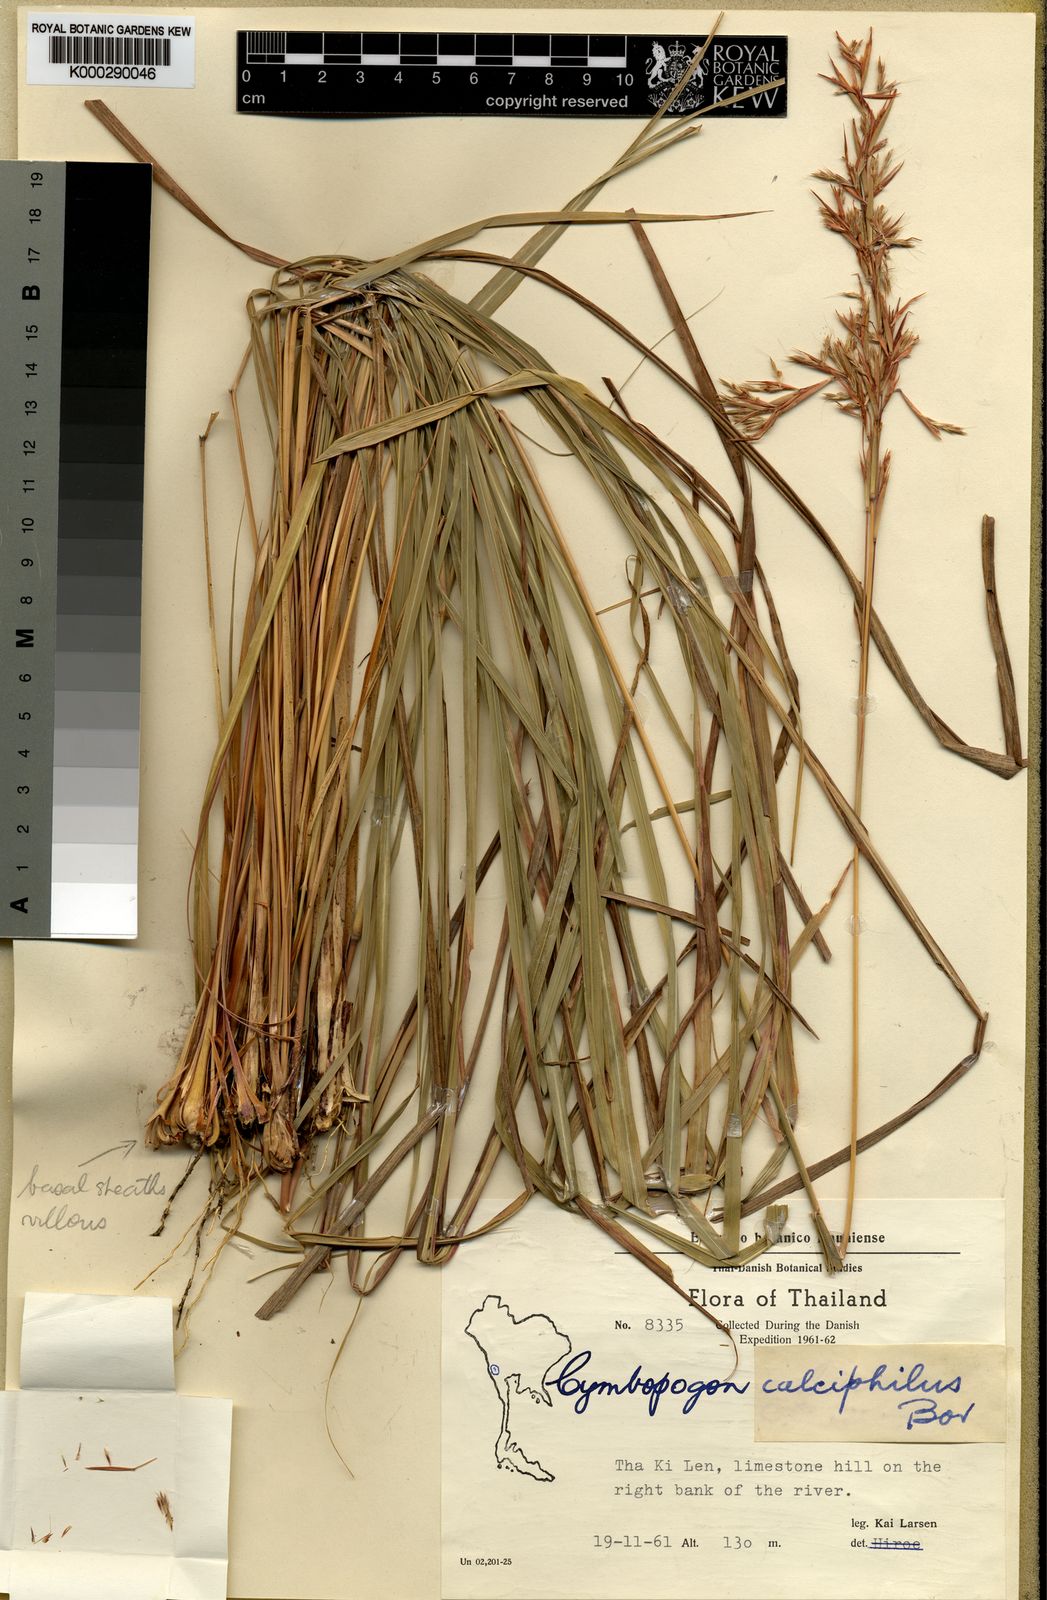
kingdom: Plantae
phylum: Tracheophyta
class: Liliopsida
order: Poales
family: Poaceae
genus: Cymbopogon
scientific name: Cymbopogon calciphilus
